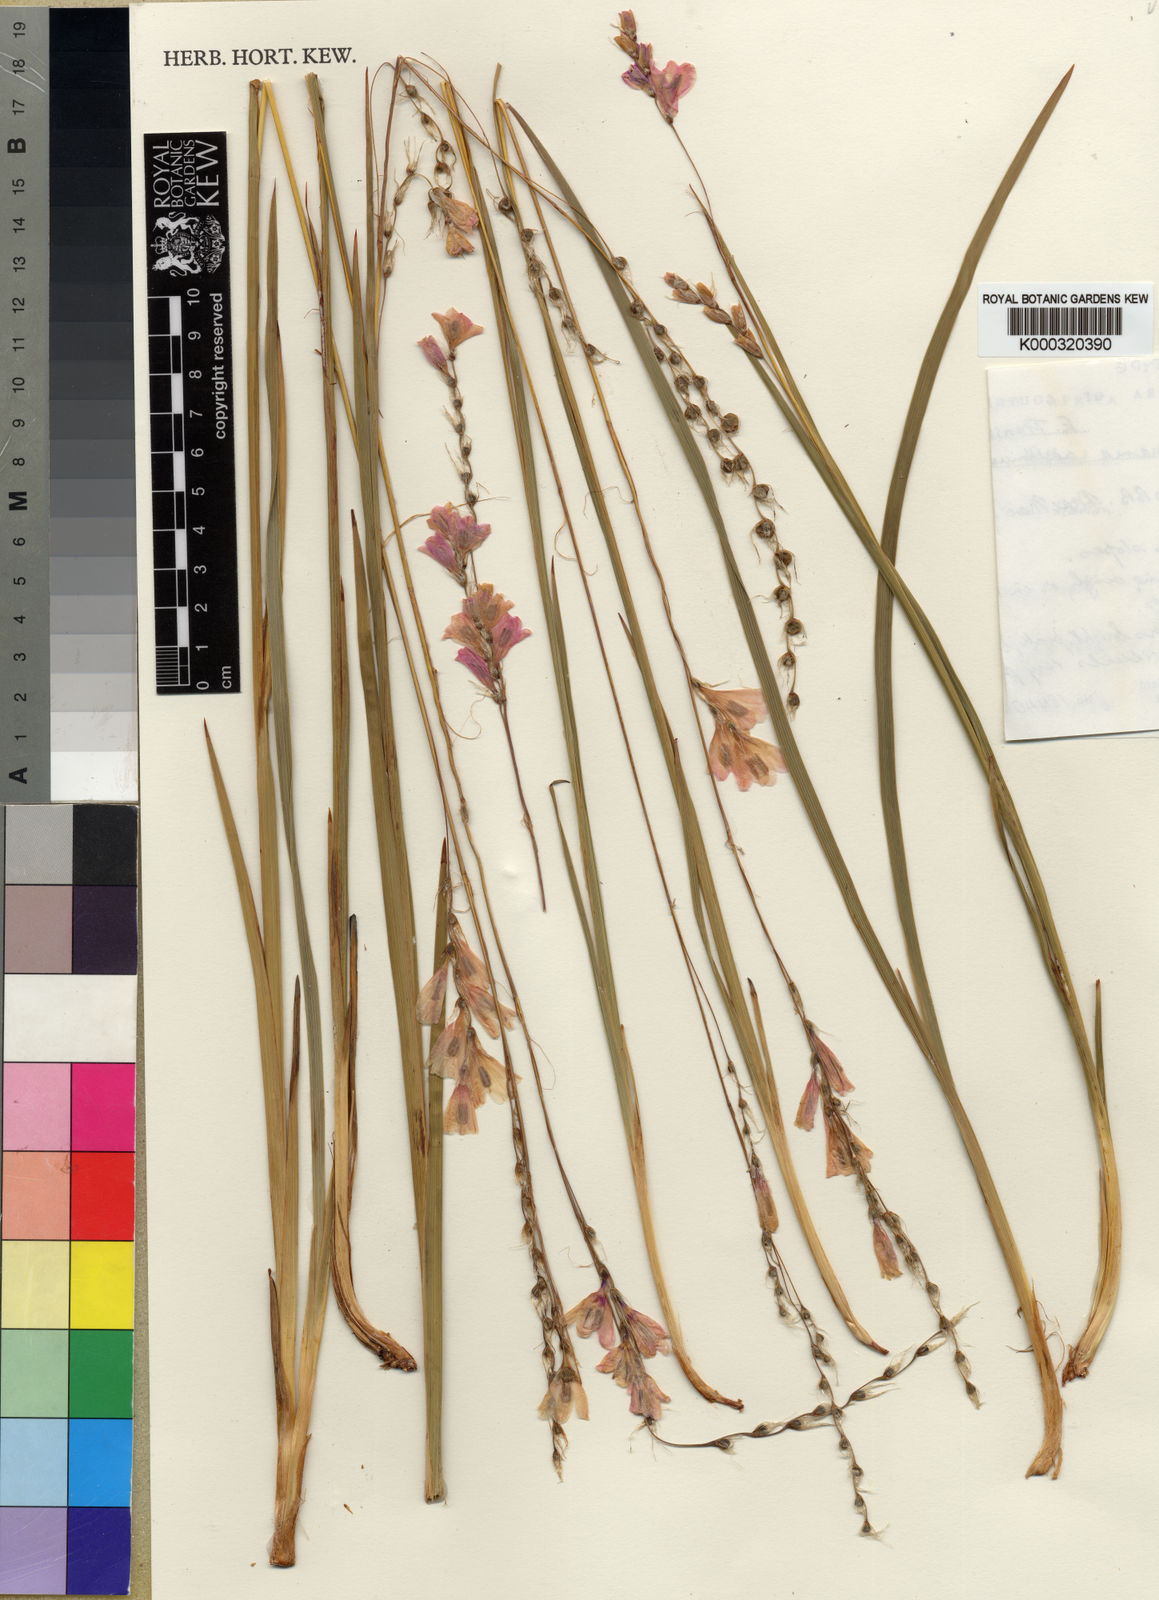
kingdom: Plantae
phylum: Tracheophyta
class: Liliopsida
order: Asparagales
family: Iridaceae
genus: Dierama
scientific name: Dierama adelphicum
